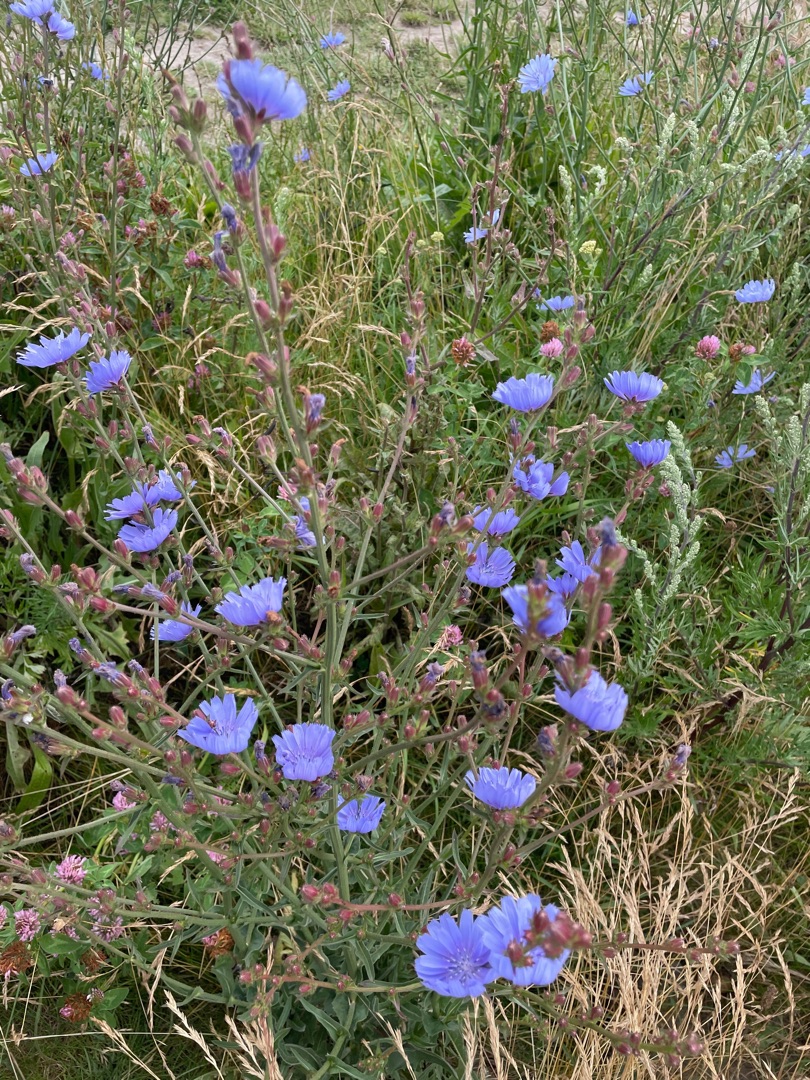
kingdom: Plantae
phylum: Tracheophyta
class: Magnoliopsida
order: Asterales
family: Asteraceae
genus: Cichorium
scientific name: Cichorium intybus
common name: Cikorie
